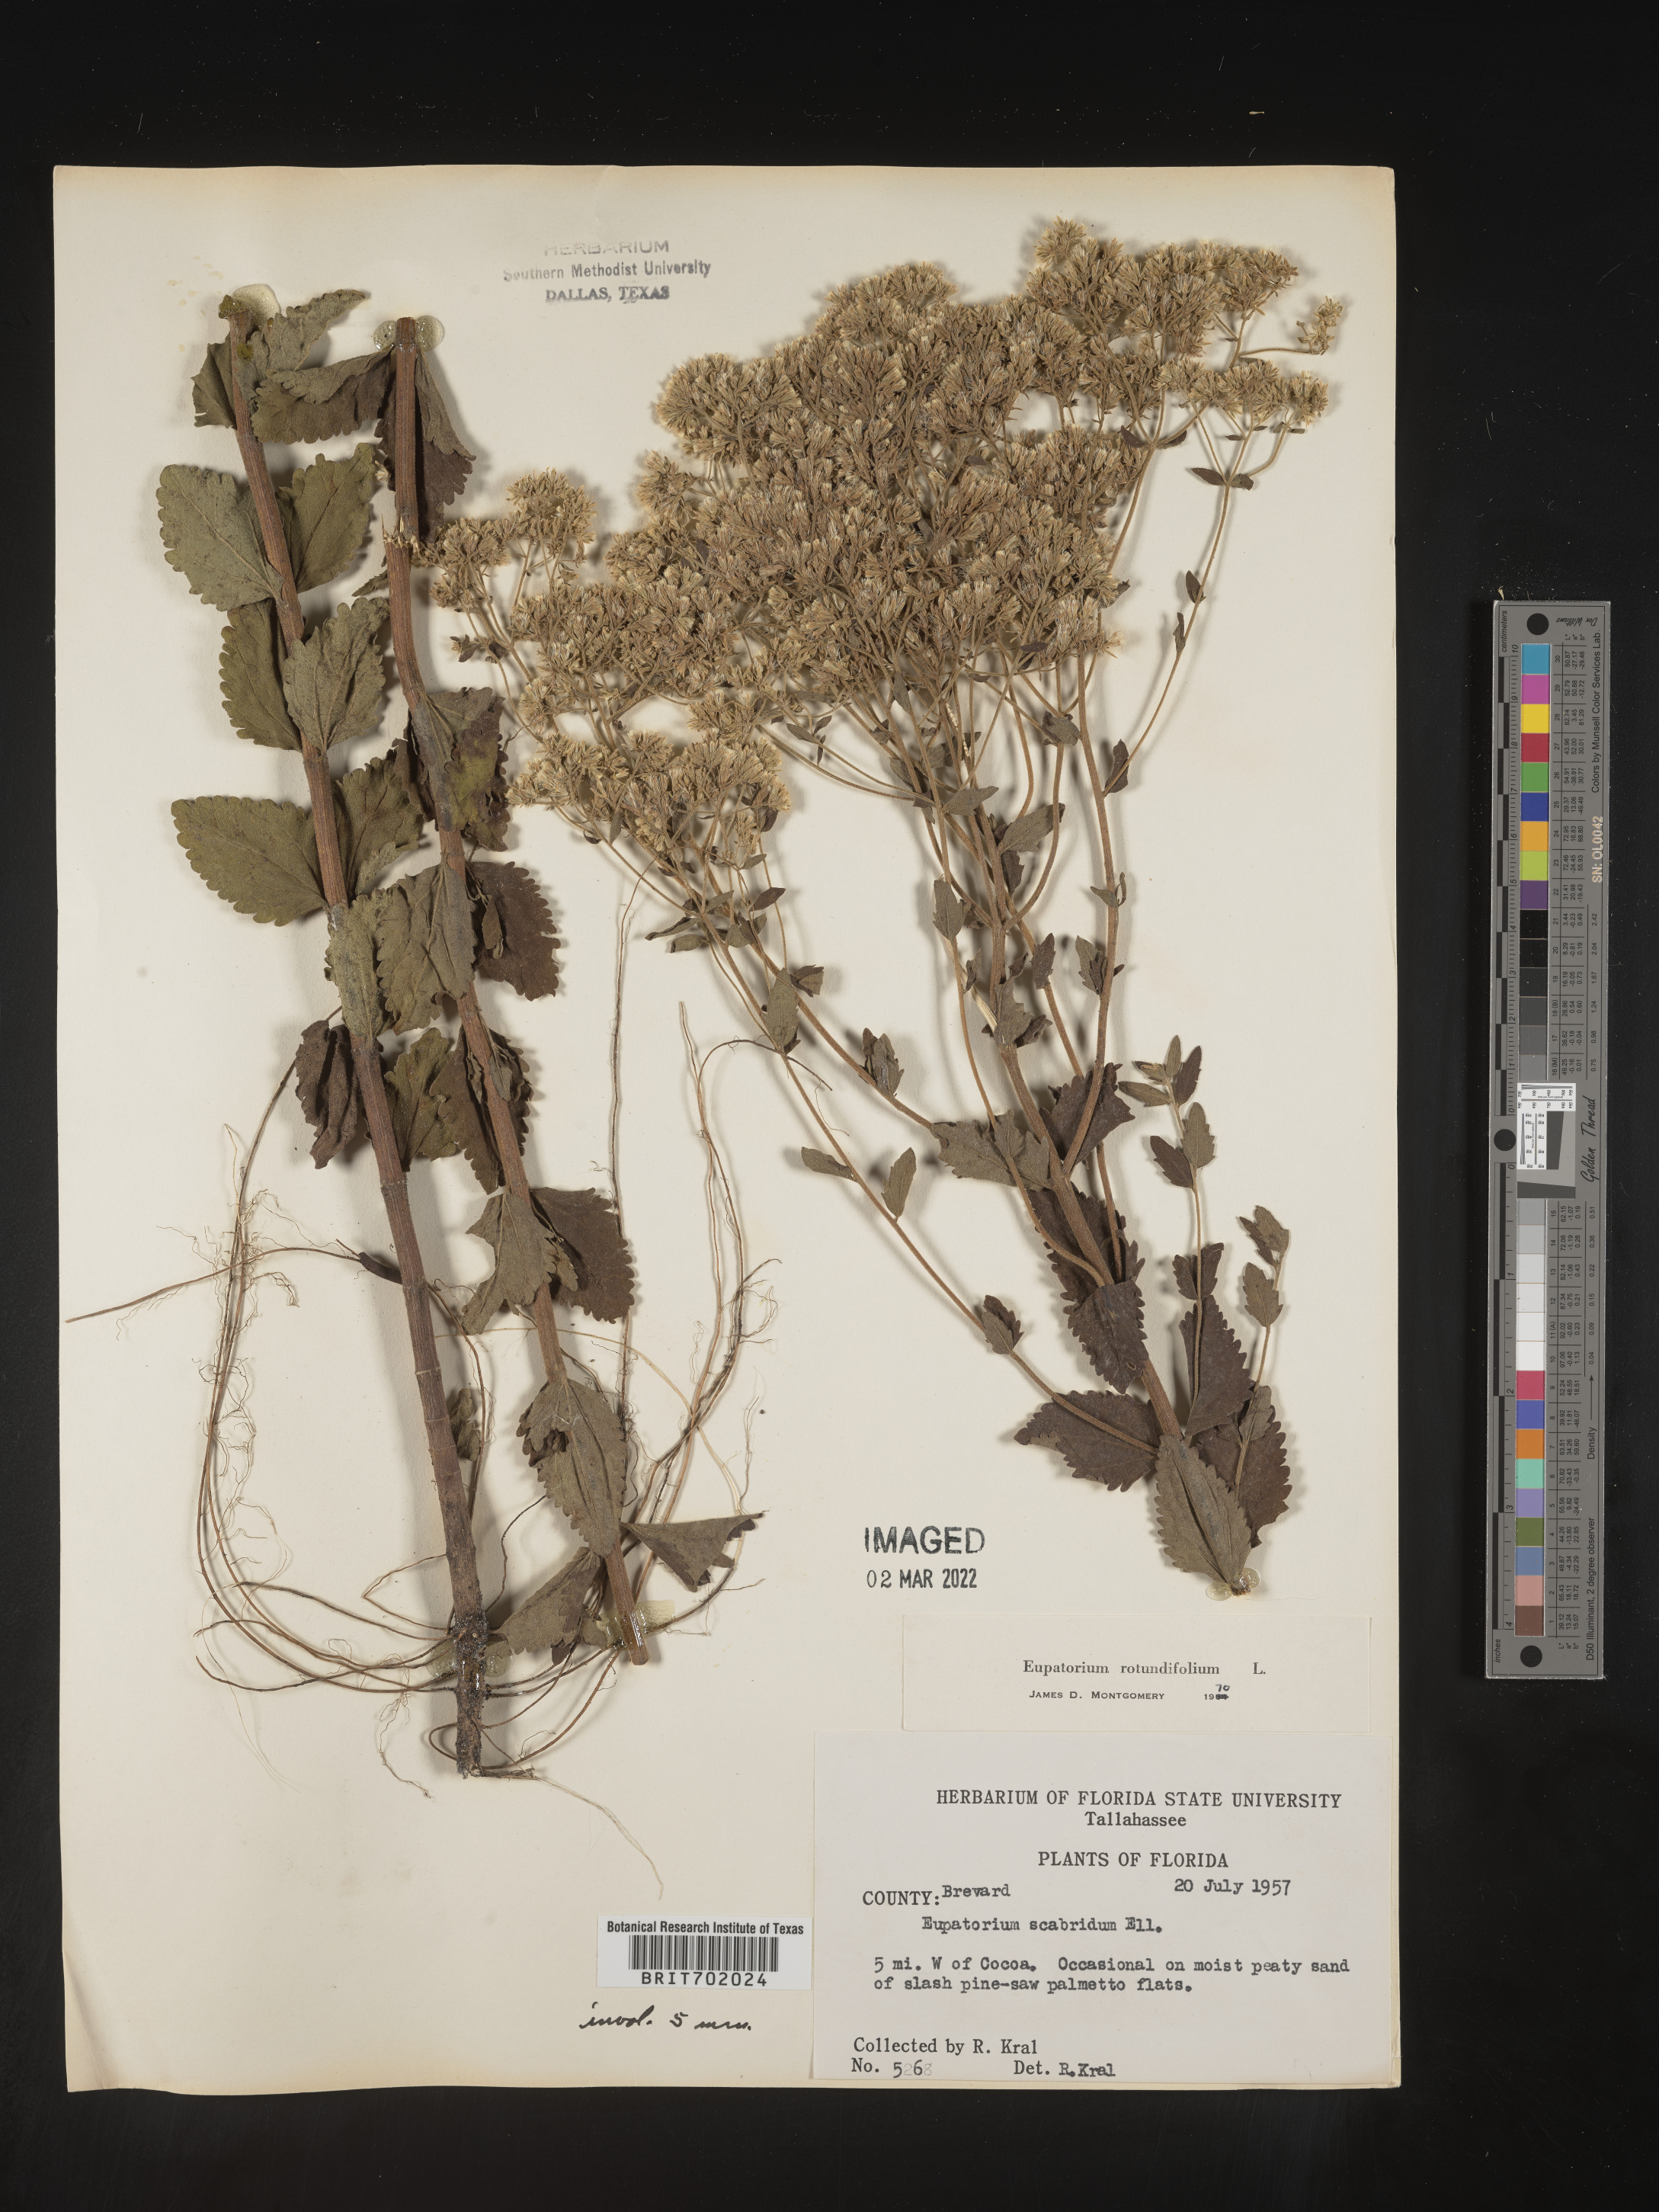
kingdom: Plantae
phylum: Tracheophyta
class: Magnoliopsida
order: Asterales
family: Asteraceae
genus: Eupatorium
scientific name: Eupatorium rotundifolium
